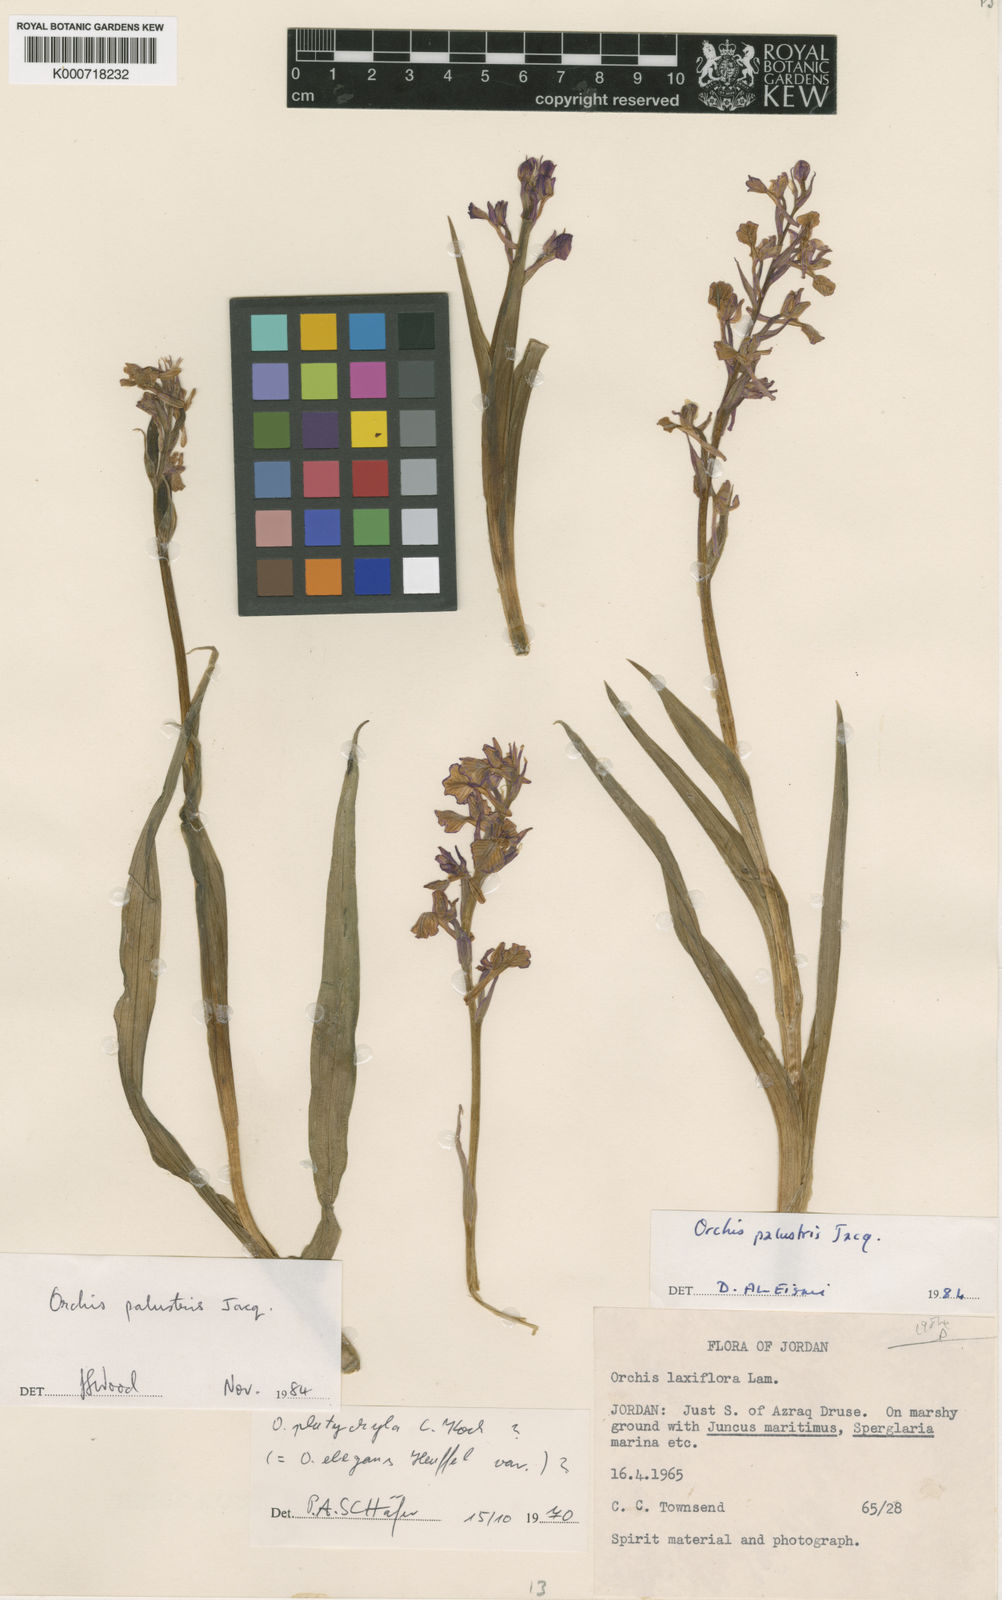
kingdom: Plantae
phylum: Tracheophyta
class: Liliopsida
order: Asparagales
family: Orchidaceae
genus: Anacamptis
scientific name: Anacamptis palustris
